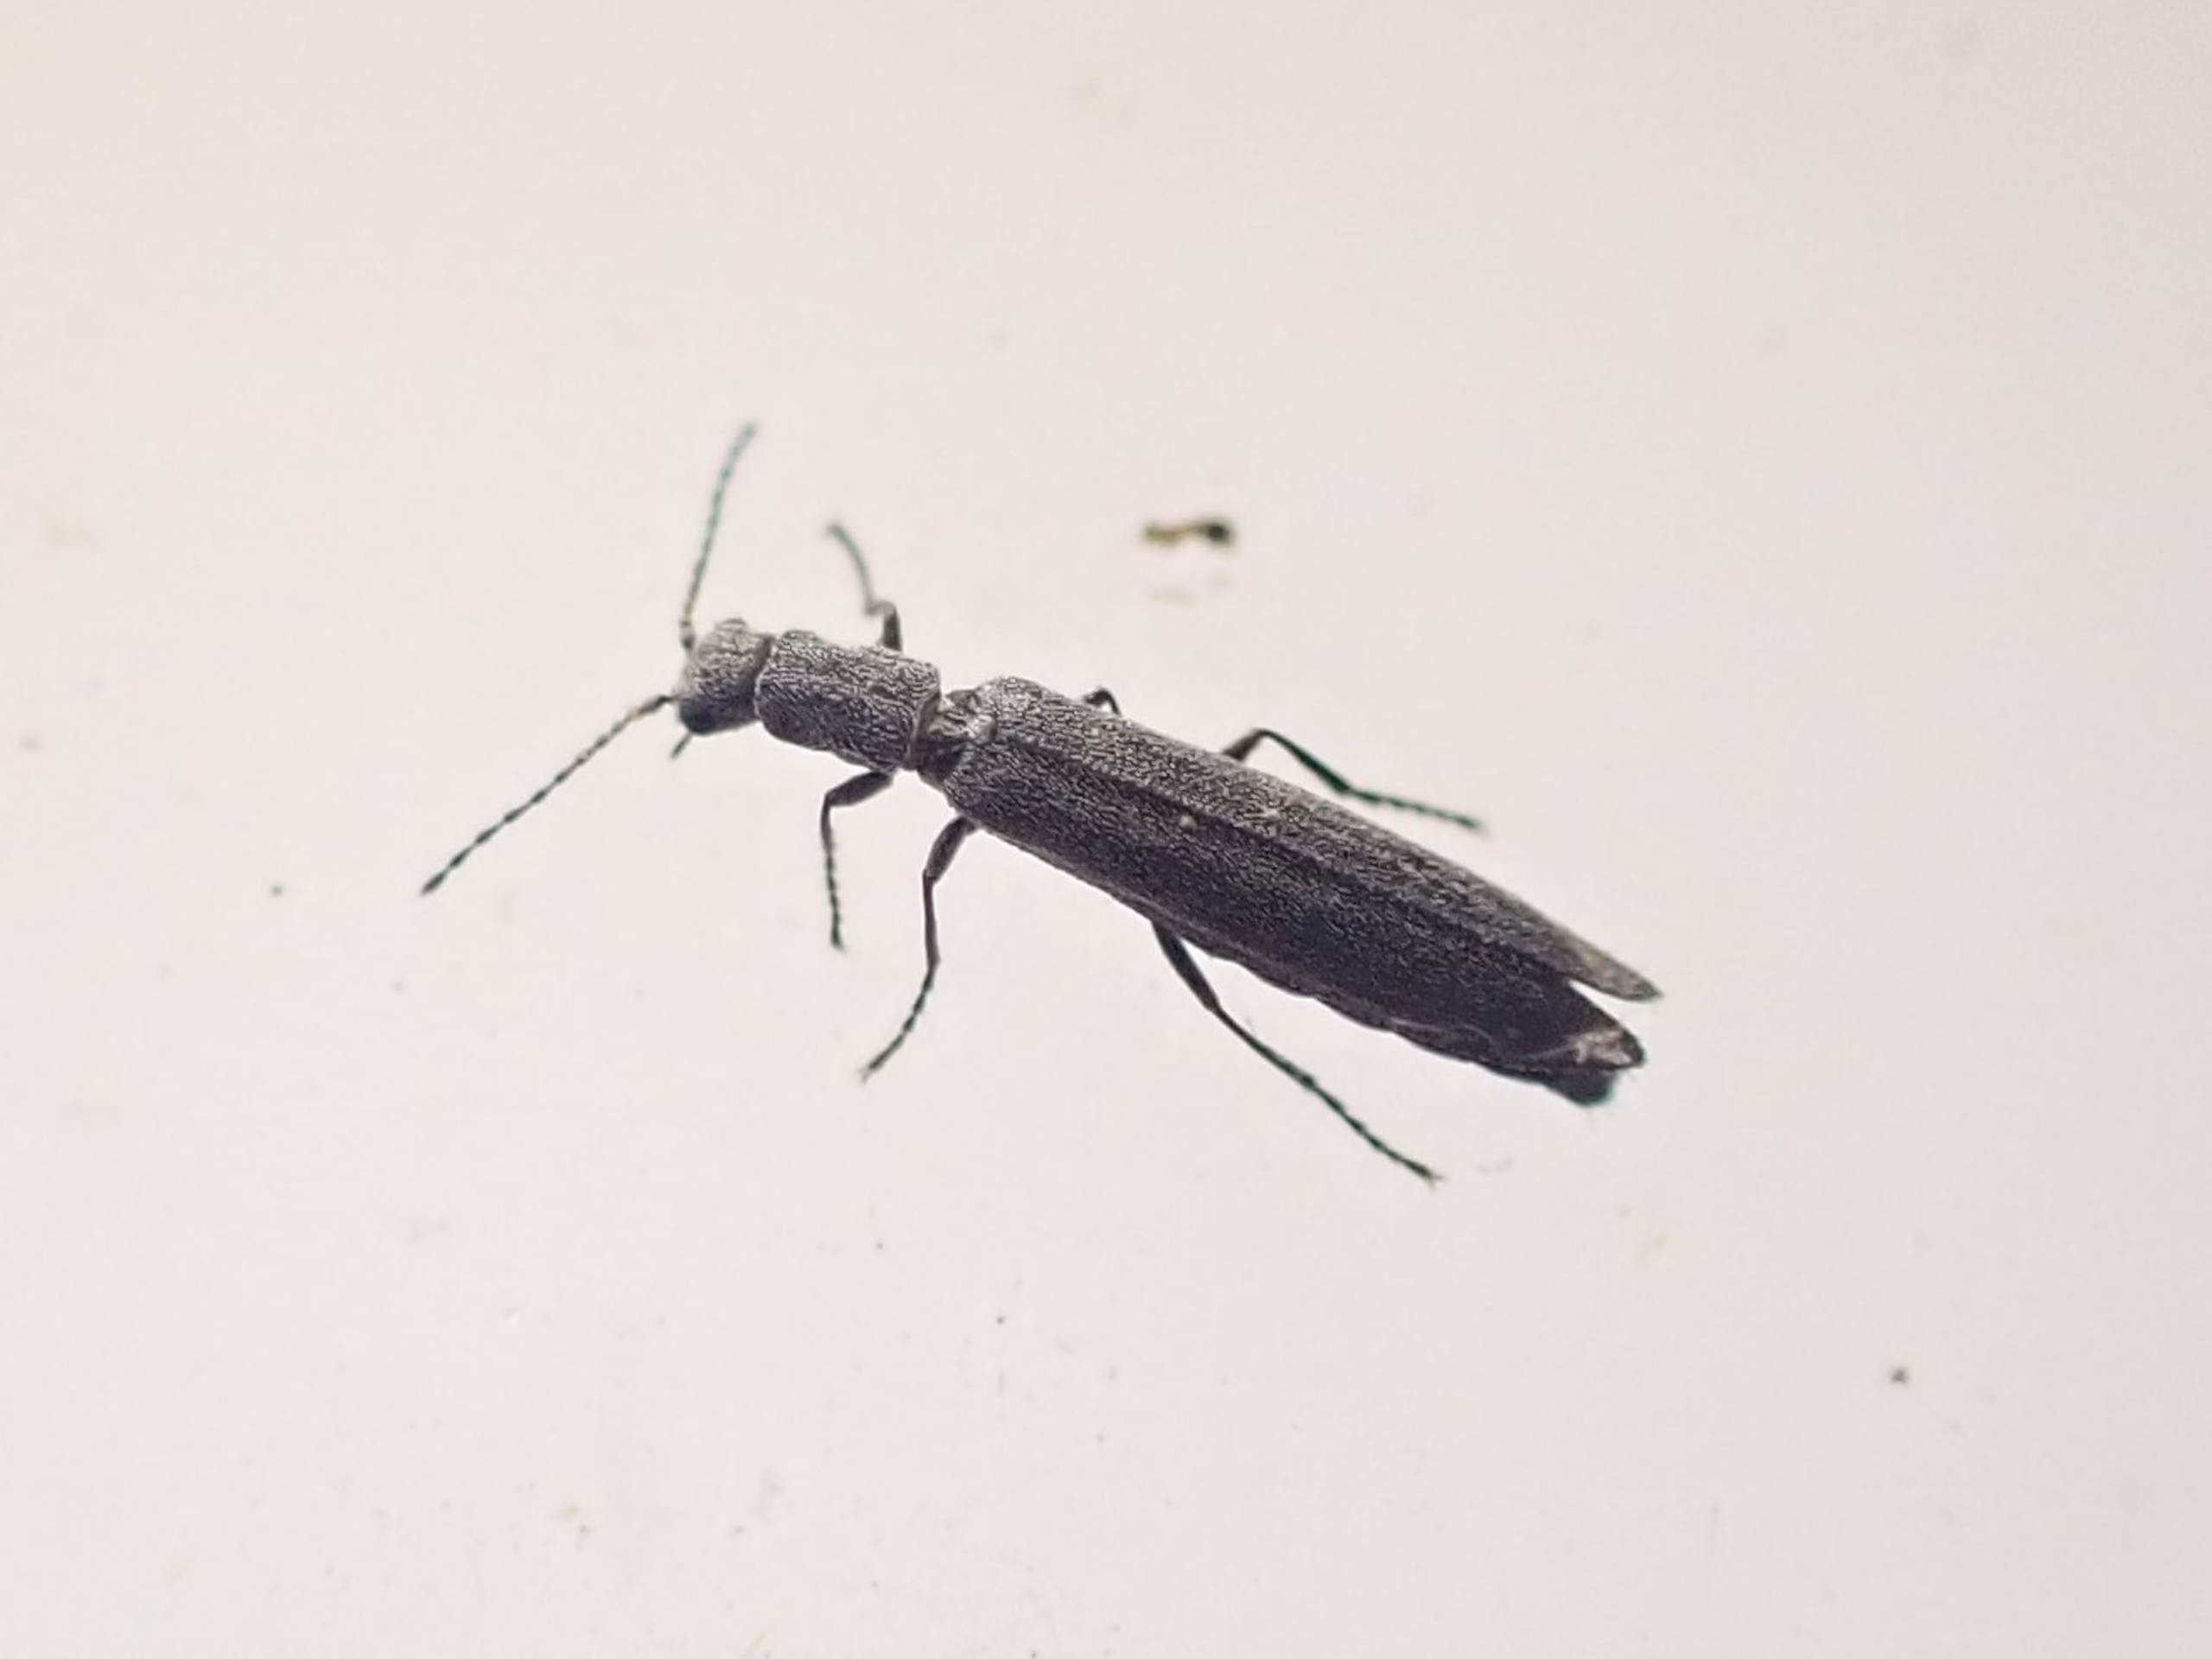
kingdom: Animalia
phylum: Arthropoda
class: Insecta
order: Coleoptera
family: Melyridae
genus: Dolichosoma
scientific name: Dolichosoma lineare
